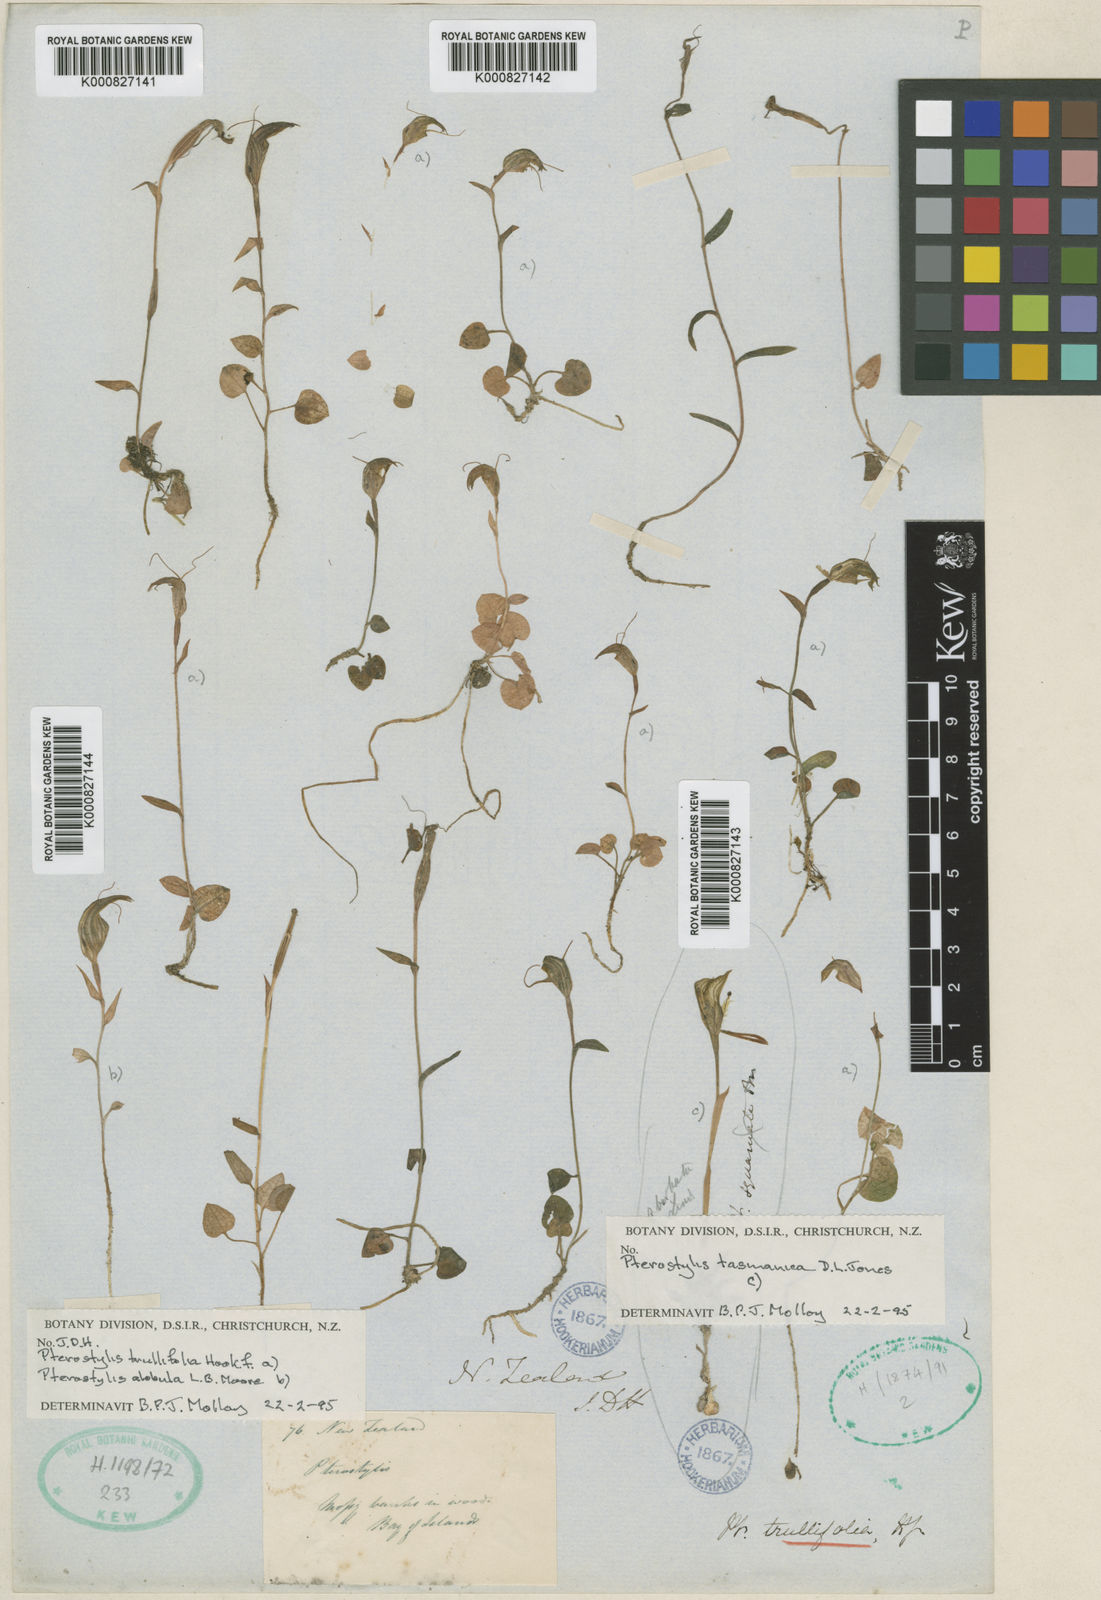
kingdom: Plantae
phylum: Tracheophyta
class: Liliopsida
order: Asparagales
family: Orchidaceae
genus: Pterostylis
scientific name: Pterostylis trullifolia
